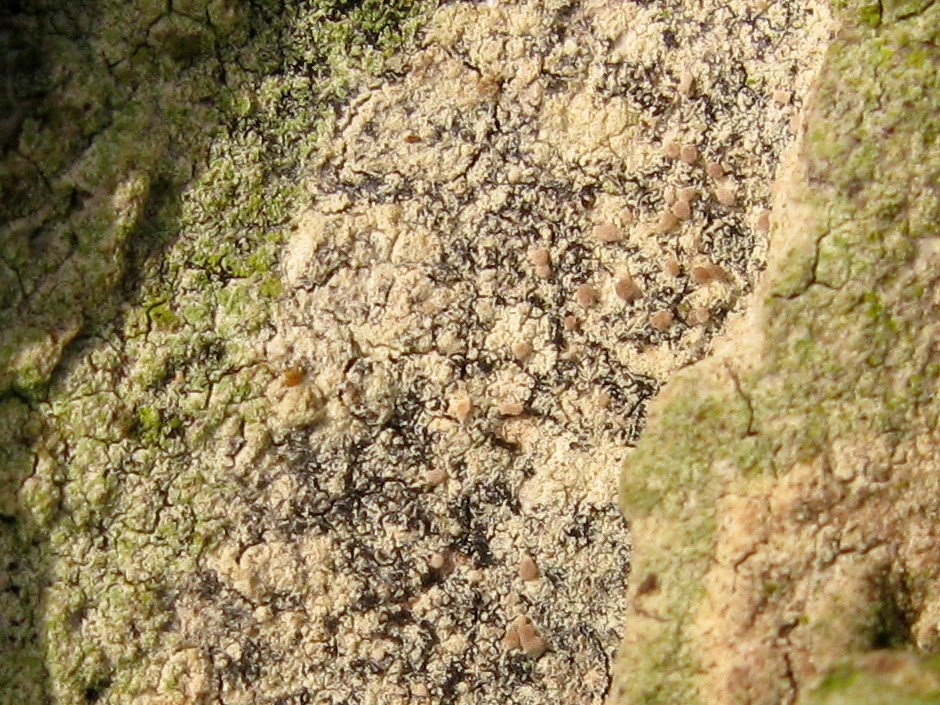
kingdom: Fungi
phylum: Ascomycota
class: Lecanoromycetes
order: Lecanorales
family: Lecanoraceae
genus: Lecanora
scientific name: Lecanora
